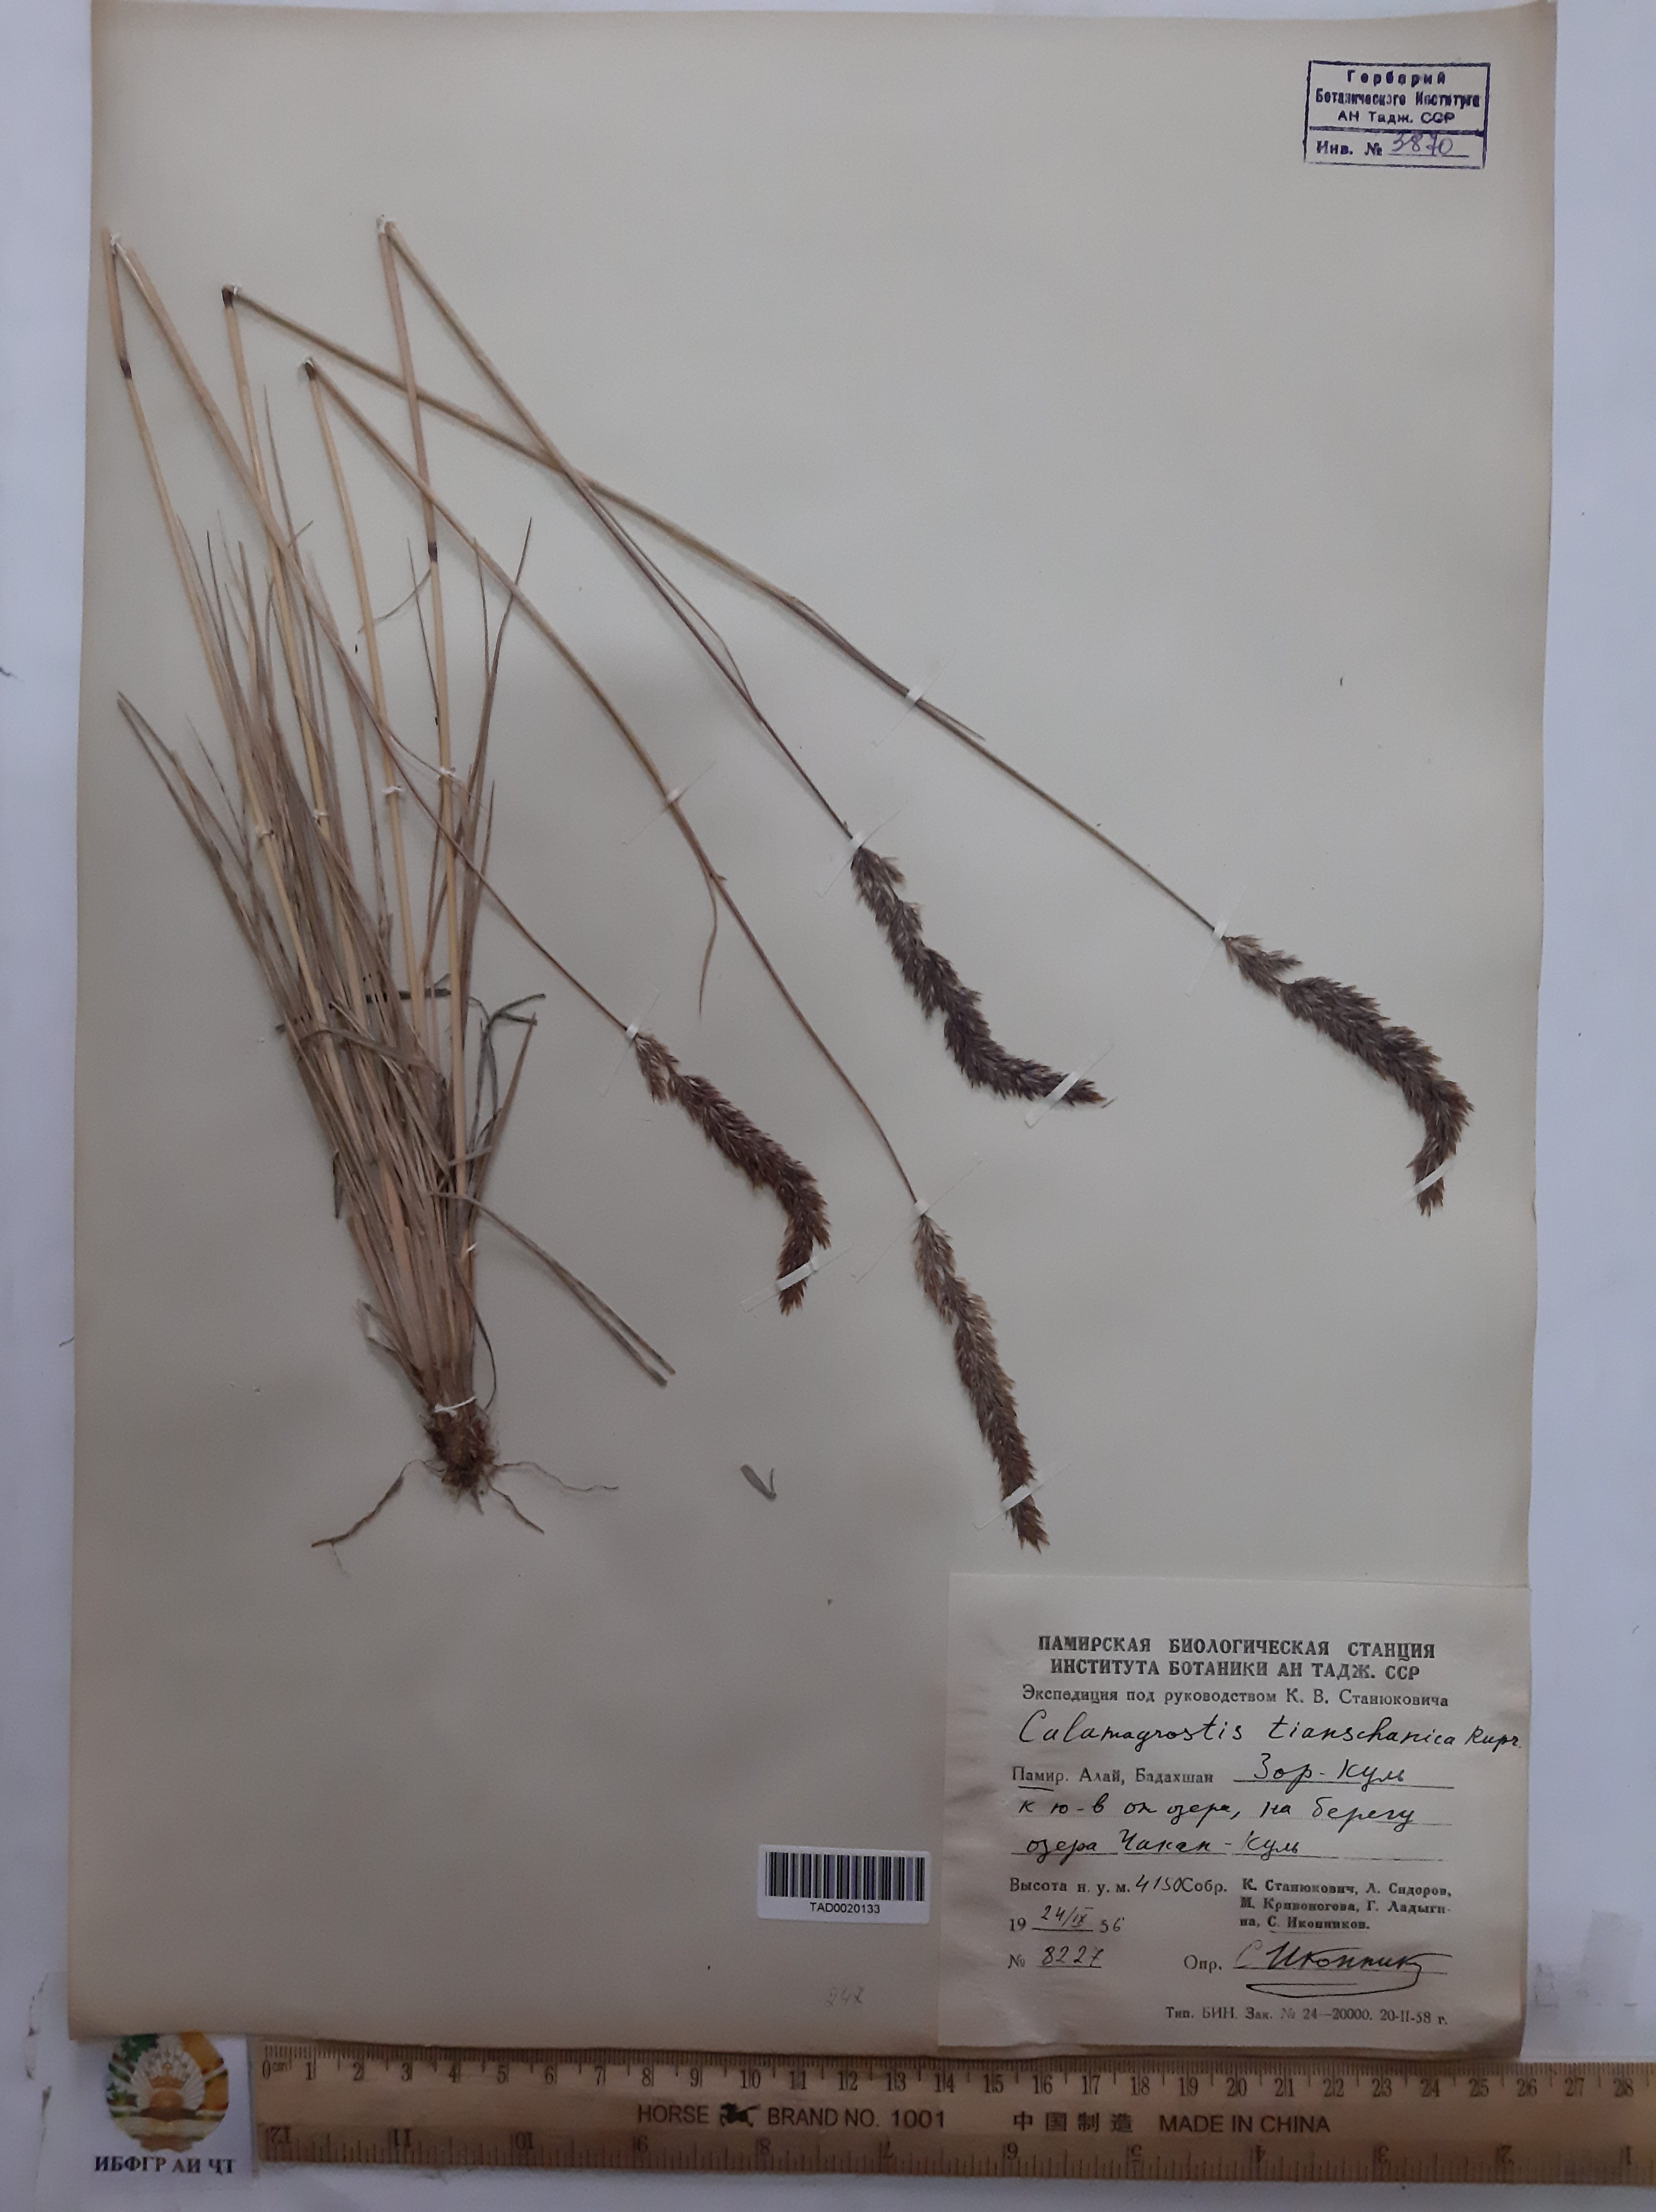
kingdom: Plantae
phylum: Tracheophyta
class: Liliopsida
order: Poales
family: Poaceae
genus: Calamagrostis
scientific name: Calamagrostis tianschanica
